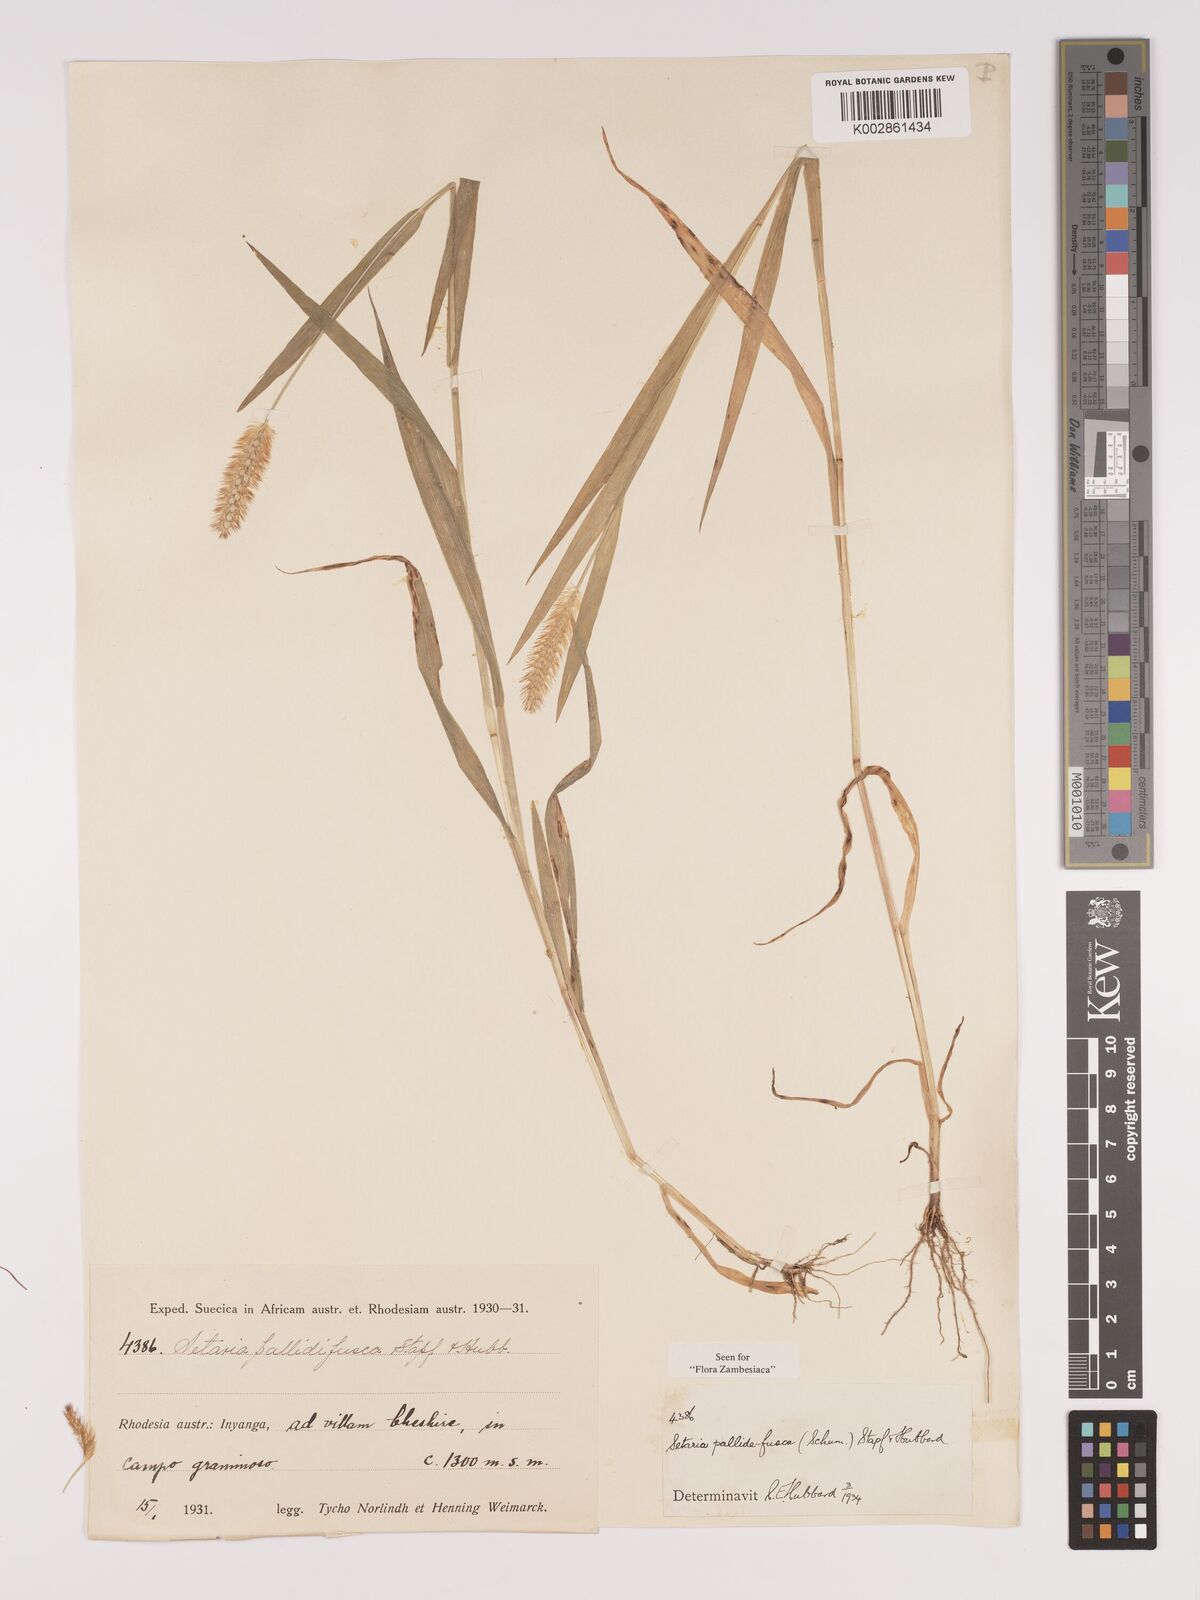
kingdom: Plantae
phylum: Tracheophyta
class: Liliopsida
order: Poales
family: Poaceae
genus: Setaria
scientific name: Setaria pumila
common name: Yellow bristle-grass
